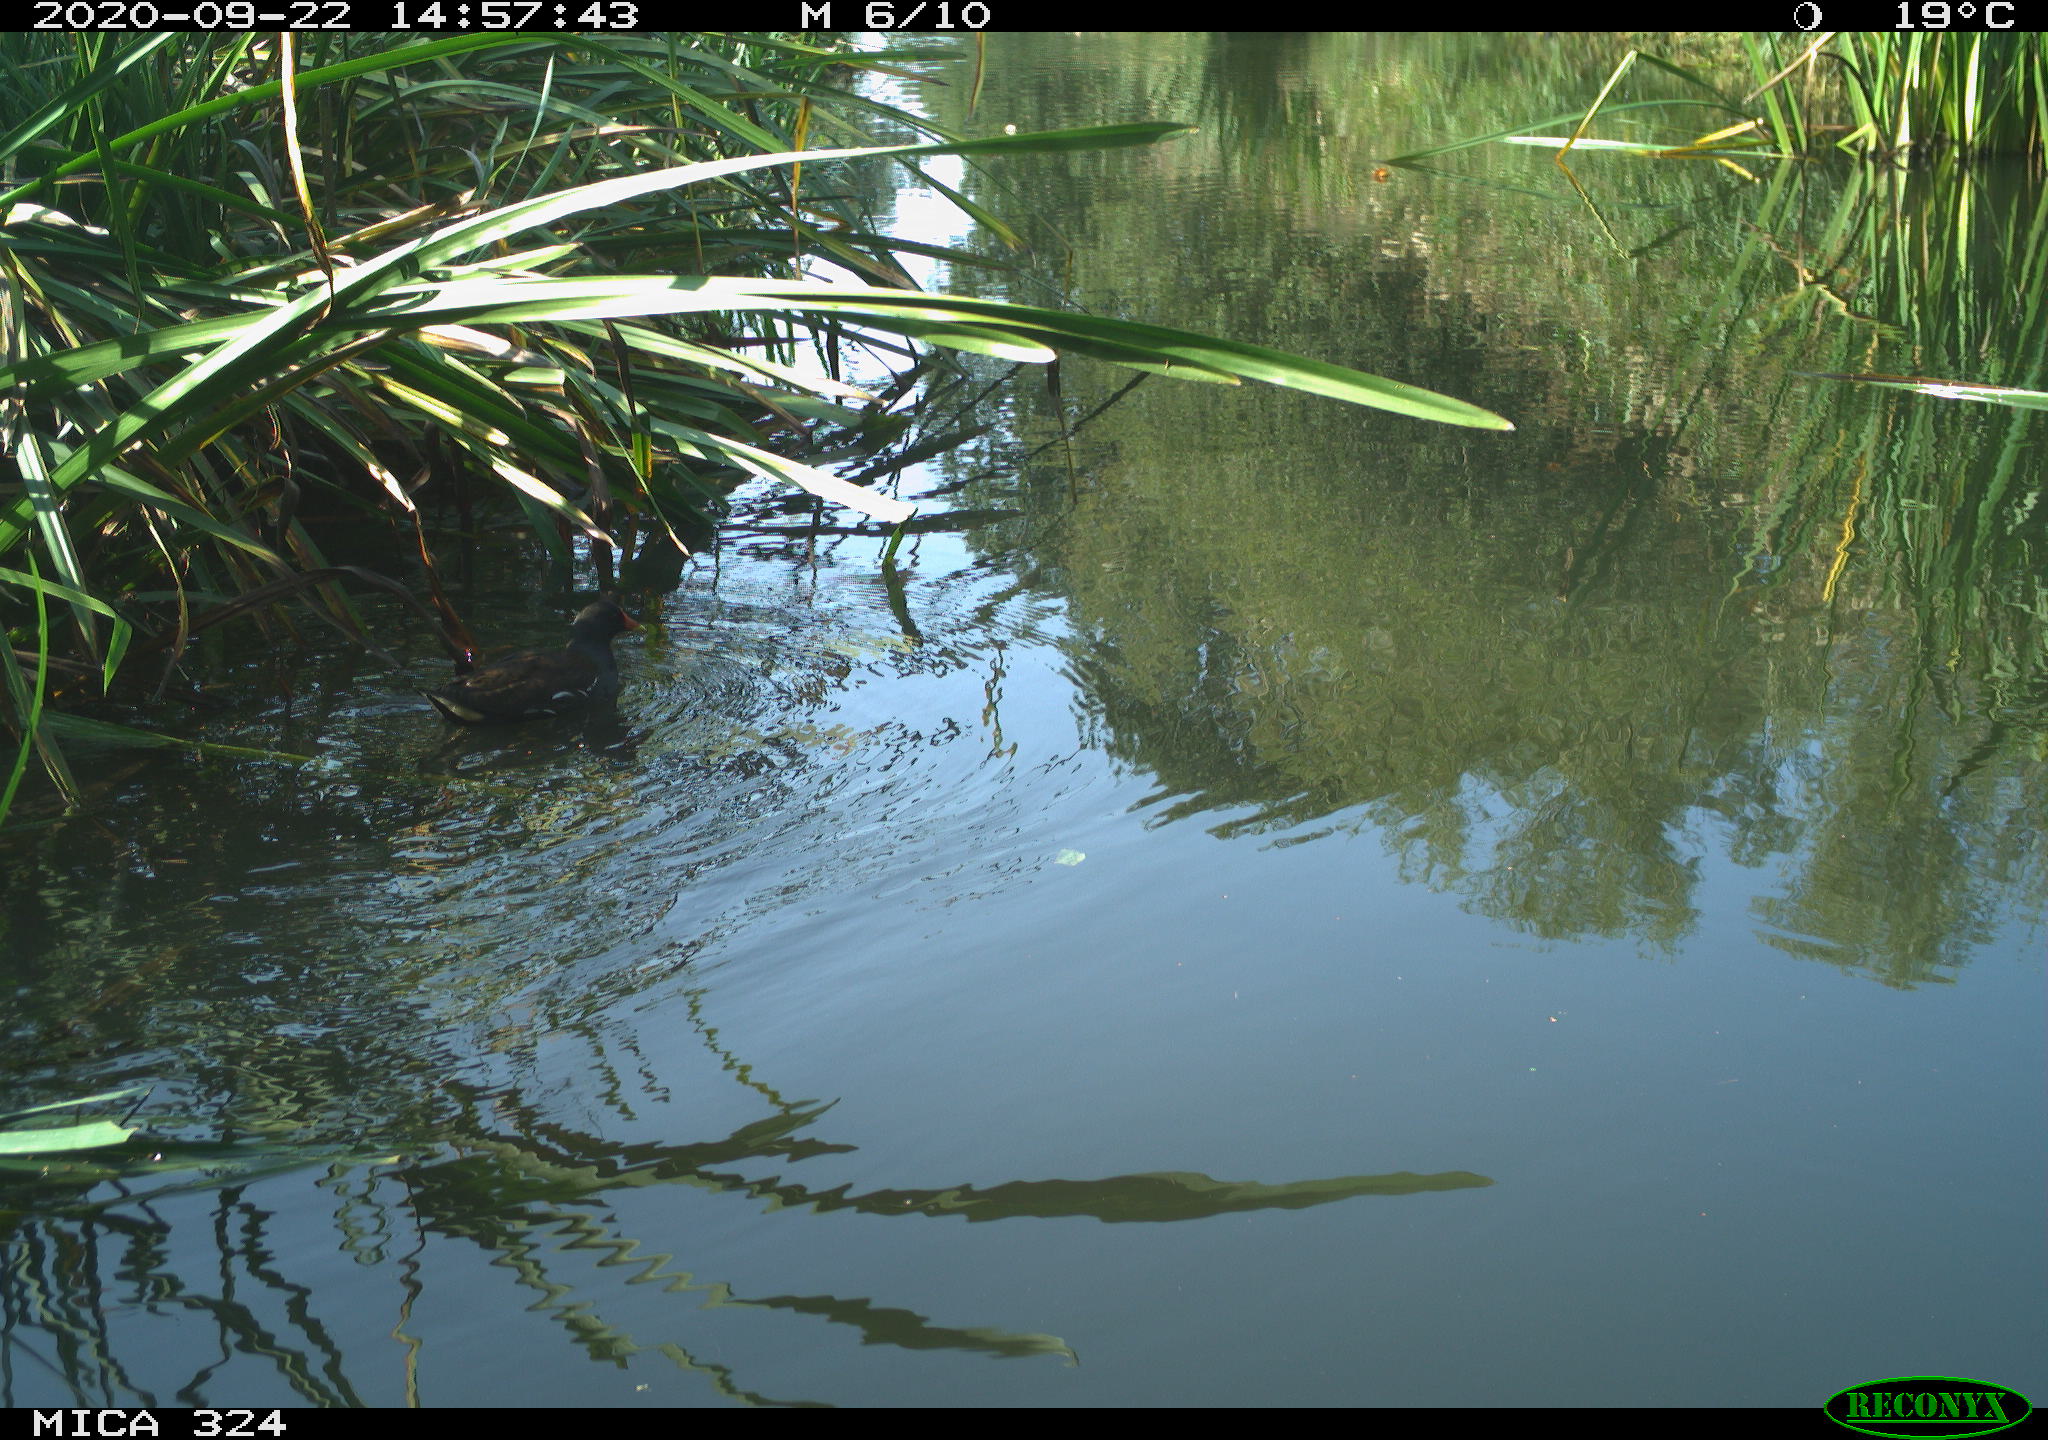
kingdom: Animalia
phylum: Chordata
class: Aves
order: Gruiformes
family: Rallidae
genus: Gallinula
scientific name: Gallinula chloropus
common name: Common moorhen
